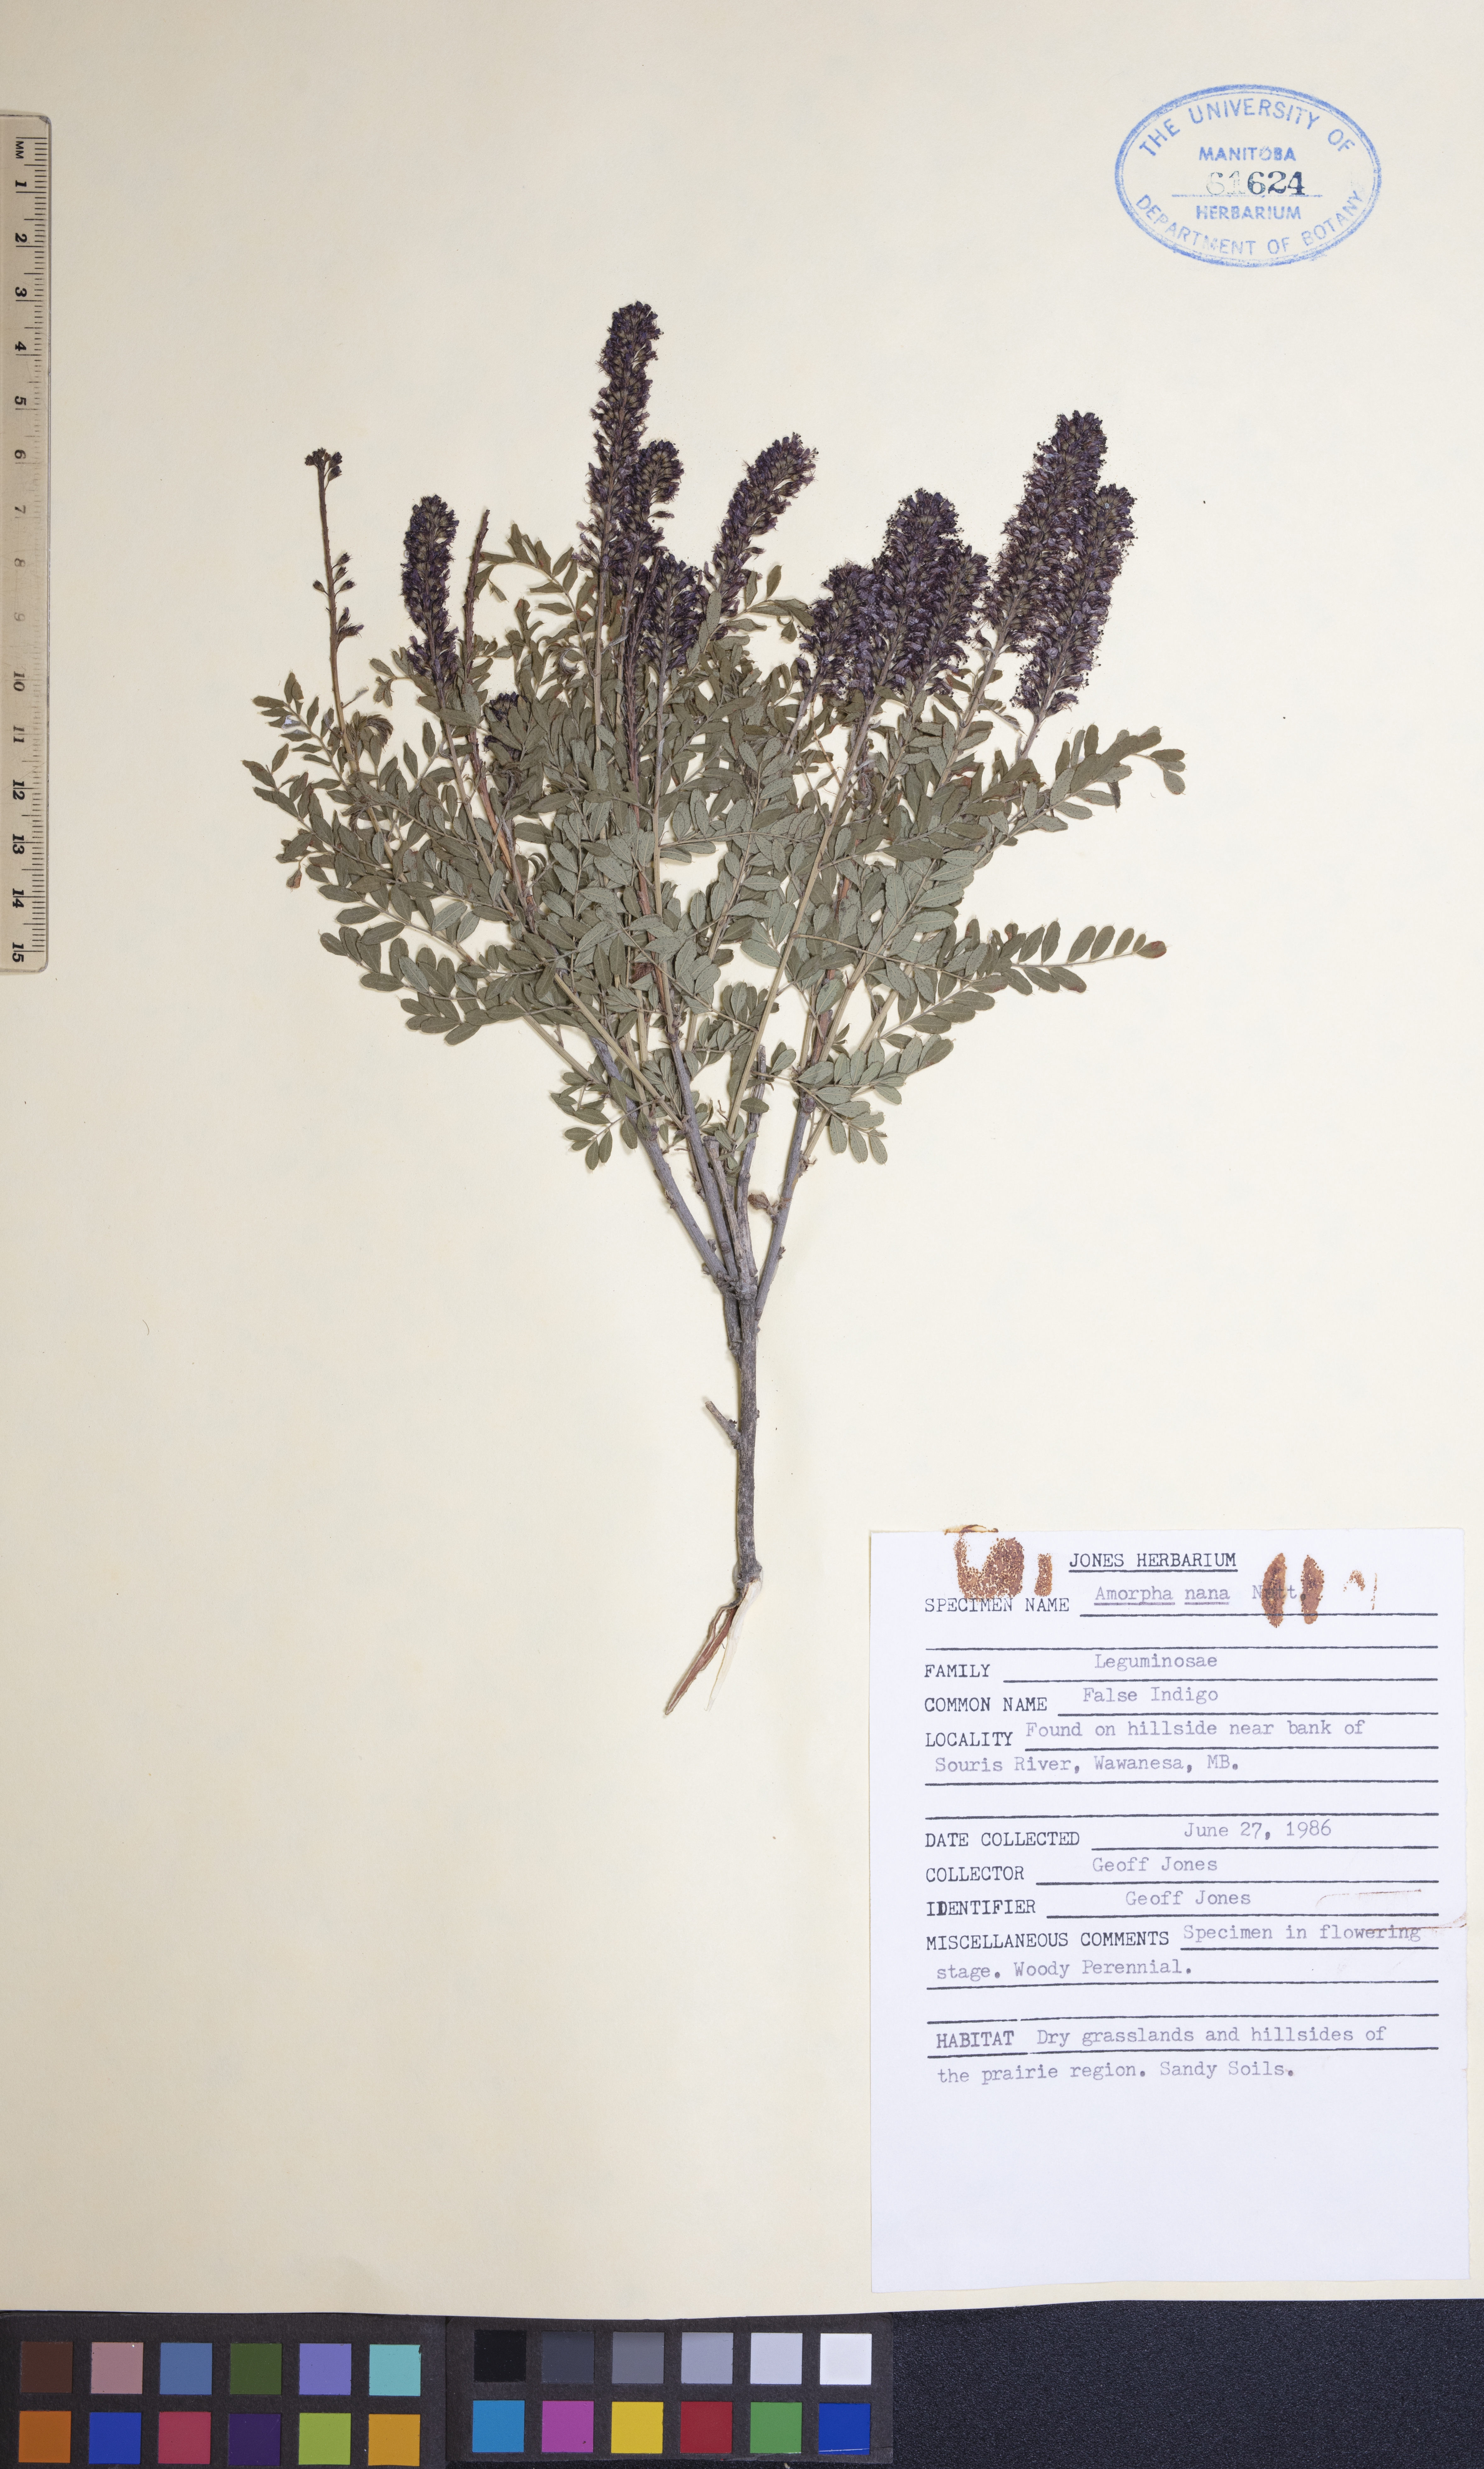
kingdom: Plantae
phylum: Tracheophyta
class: Magnoliopsida
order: Fabales
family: Fabaceae
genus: Amorpha
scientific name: Amorpha nana
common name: Fragrant false indigo
